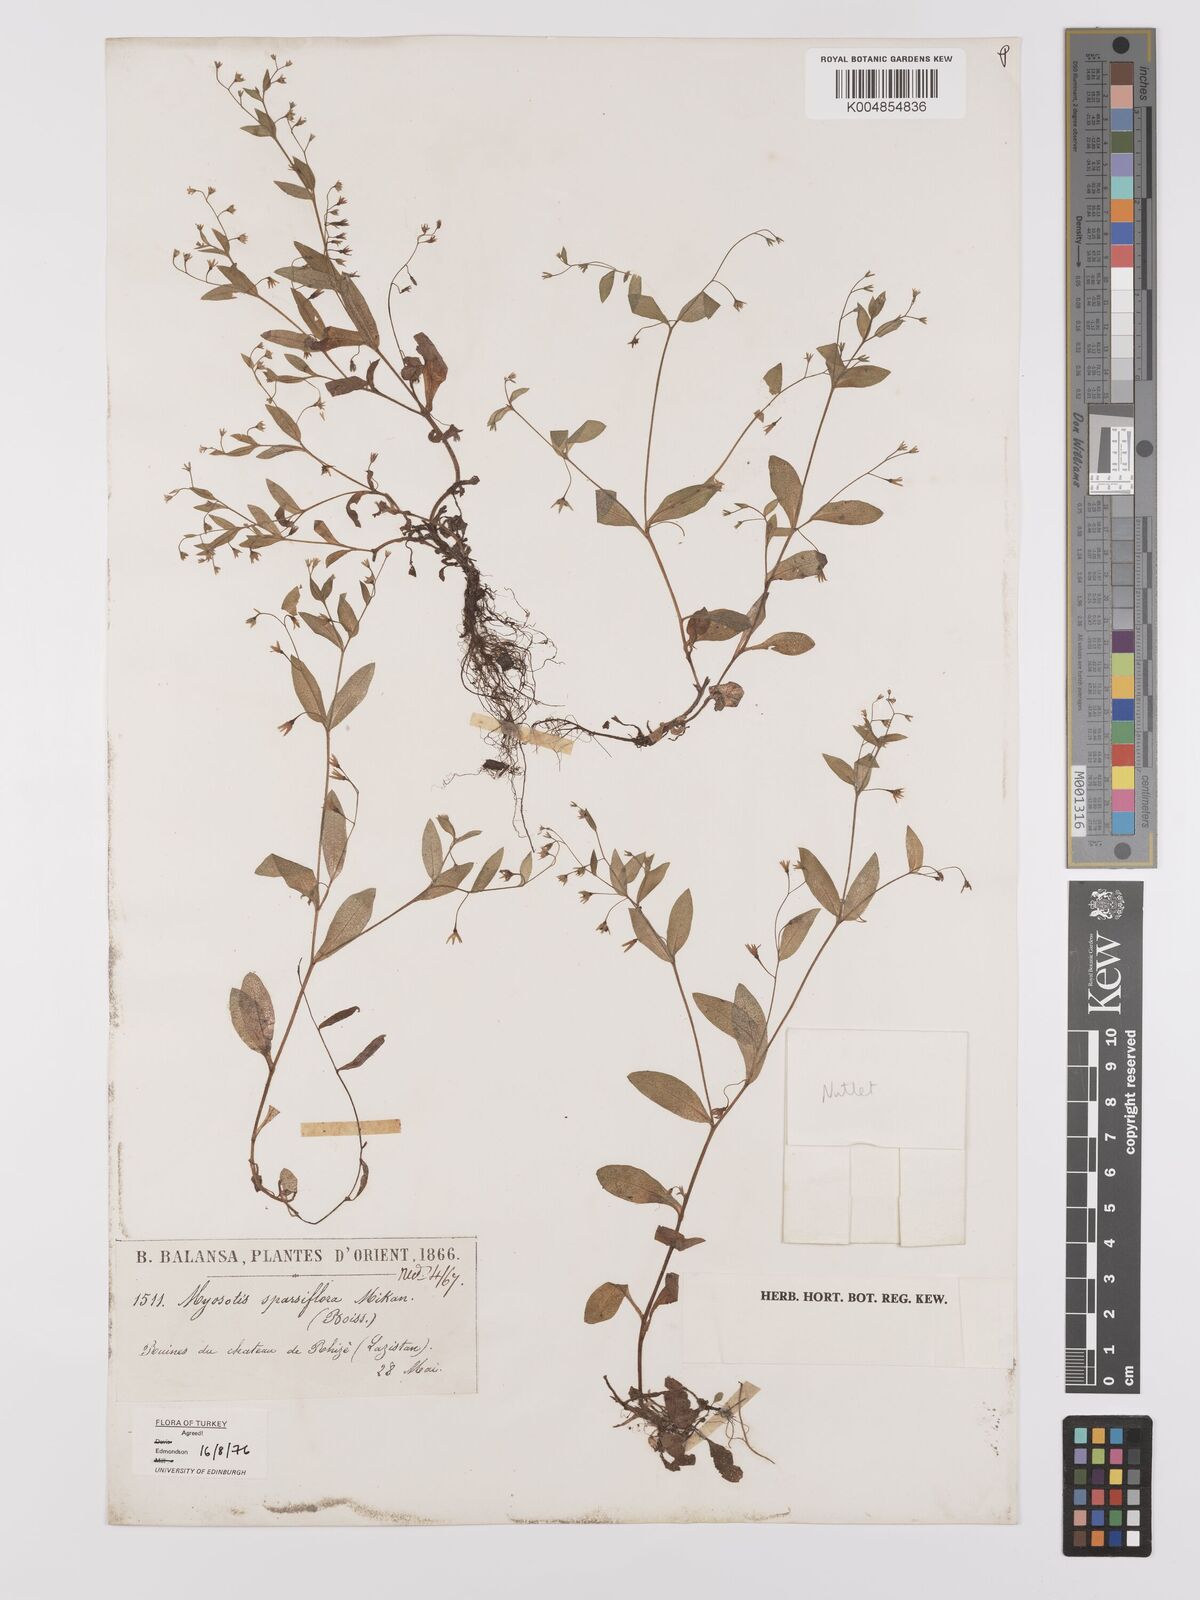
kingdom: Plantae
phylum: Tracheophyta
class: Magnoliopsida
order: Boraginales
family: Boraginaceae
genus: Myosotis
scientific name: Myosotis
